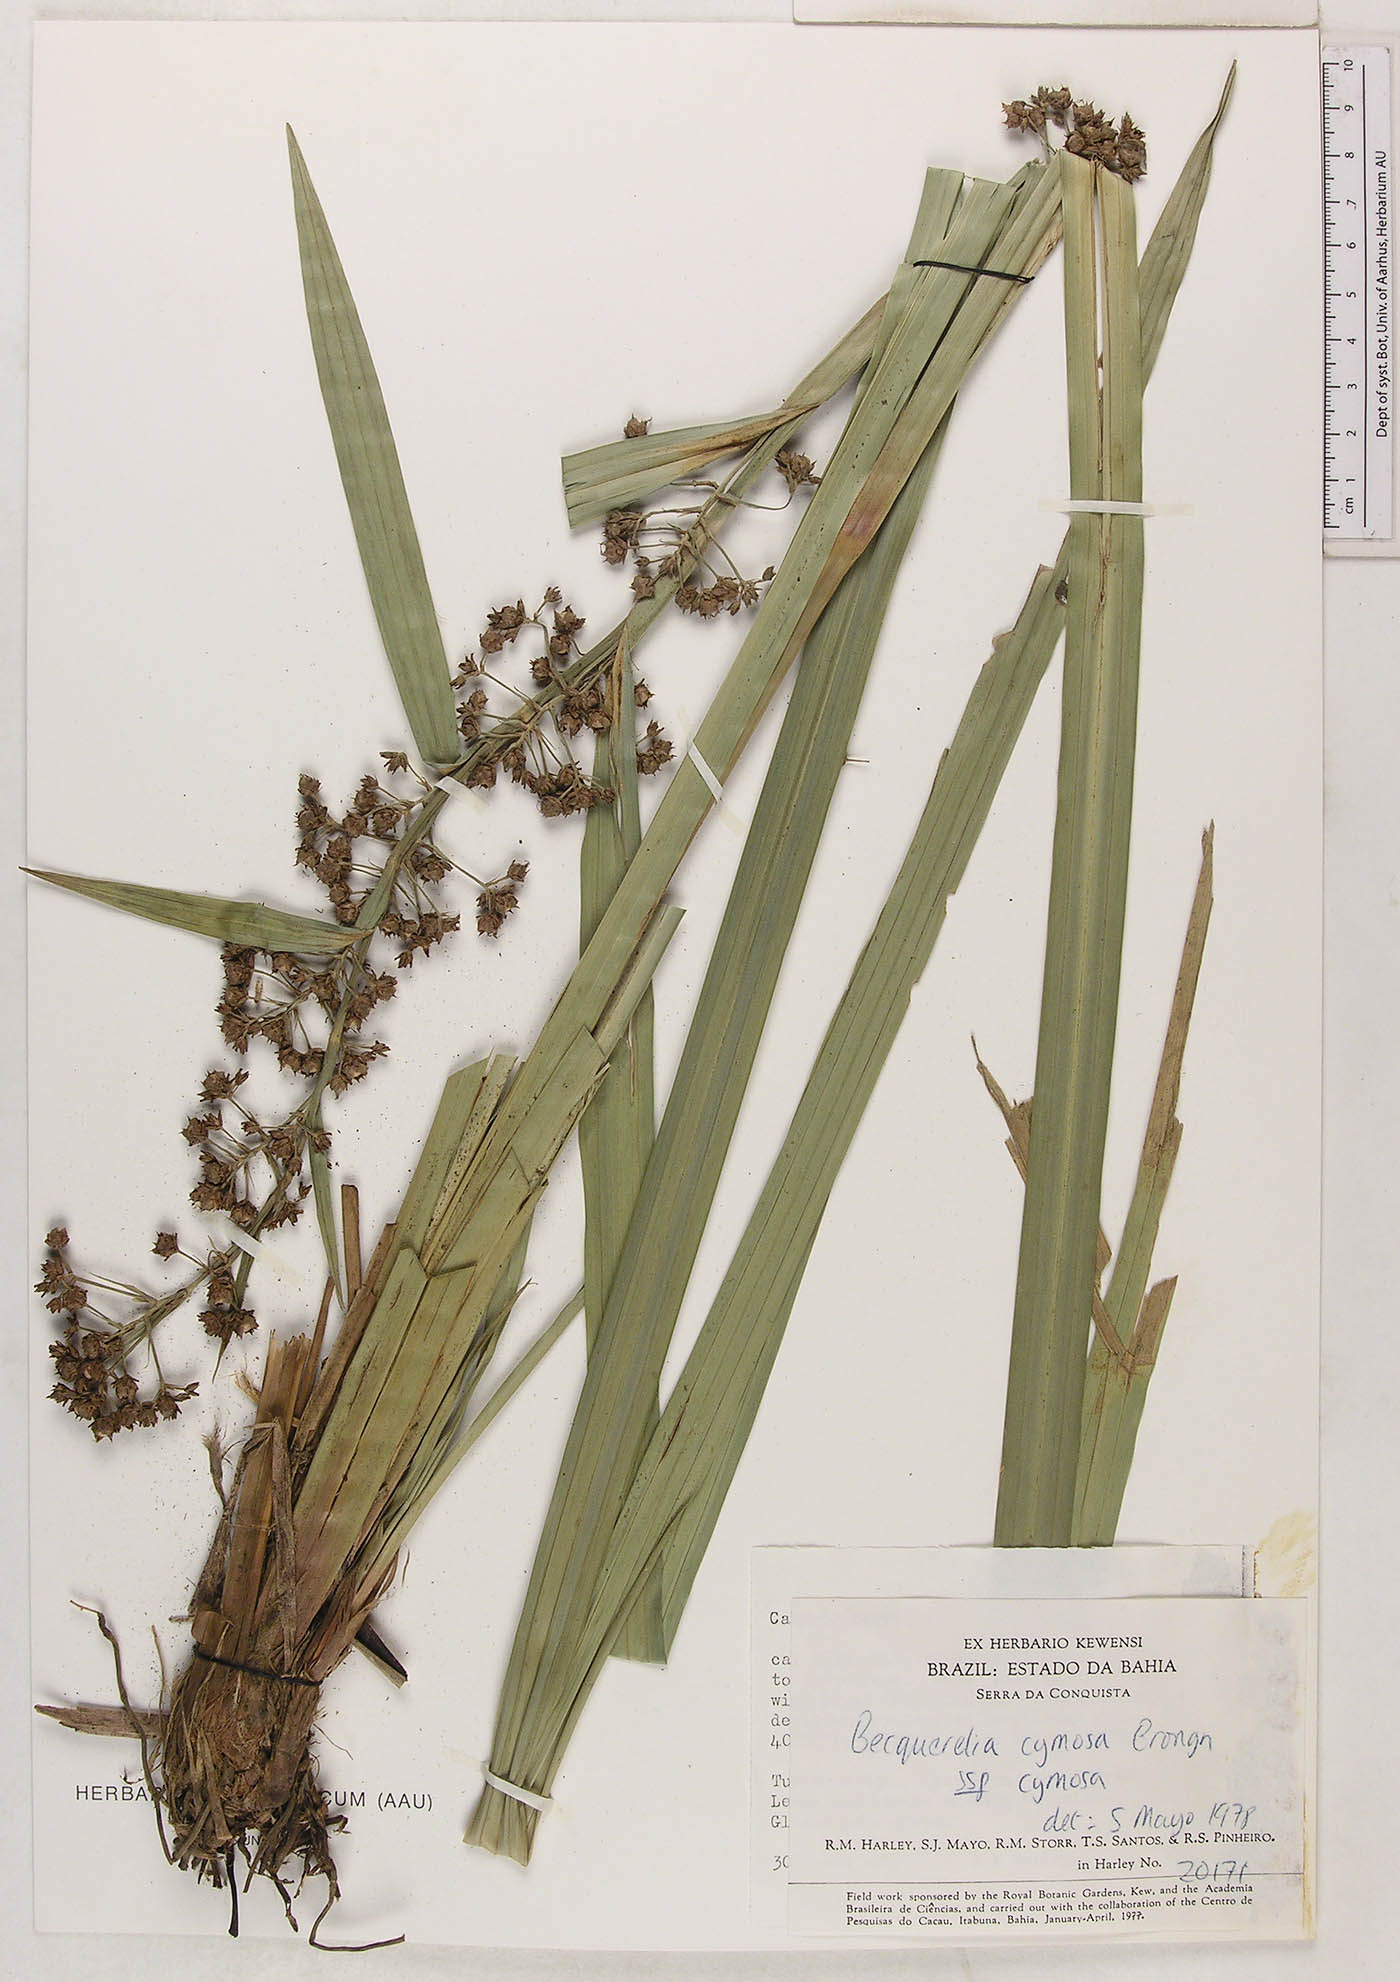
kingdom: Plantae
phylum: Tracheophyta
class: Liliopsida
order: Poales
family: Cyperaceae
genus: Becquerelia
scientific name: Becquerelia cymosa
